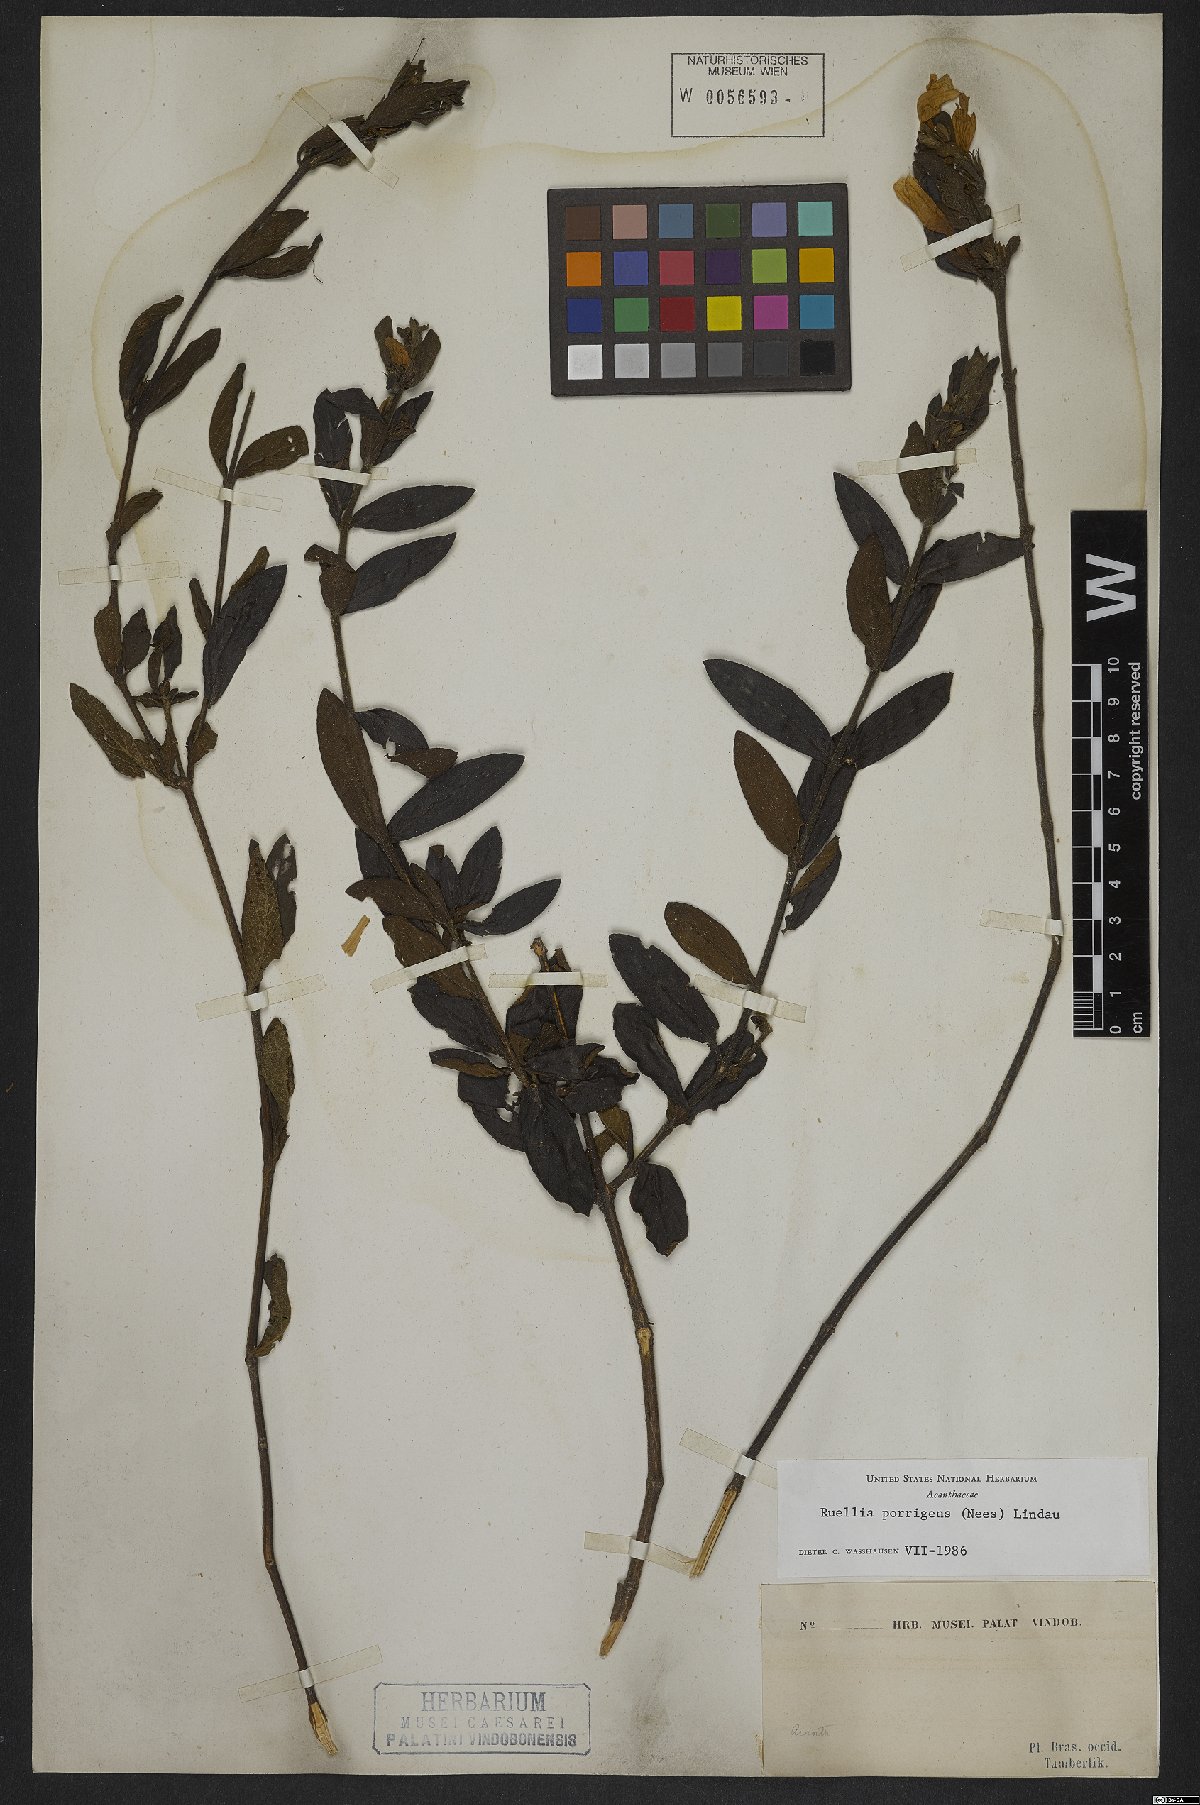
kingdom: Plantae
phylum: Tracheophyta
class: Magnoliopsida
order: Lamiales
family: Acanthaceae
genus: Ruellia
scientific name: Ruellia geminiflora
